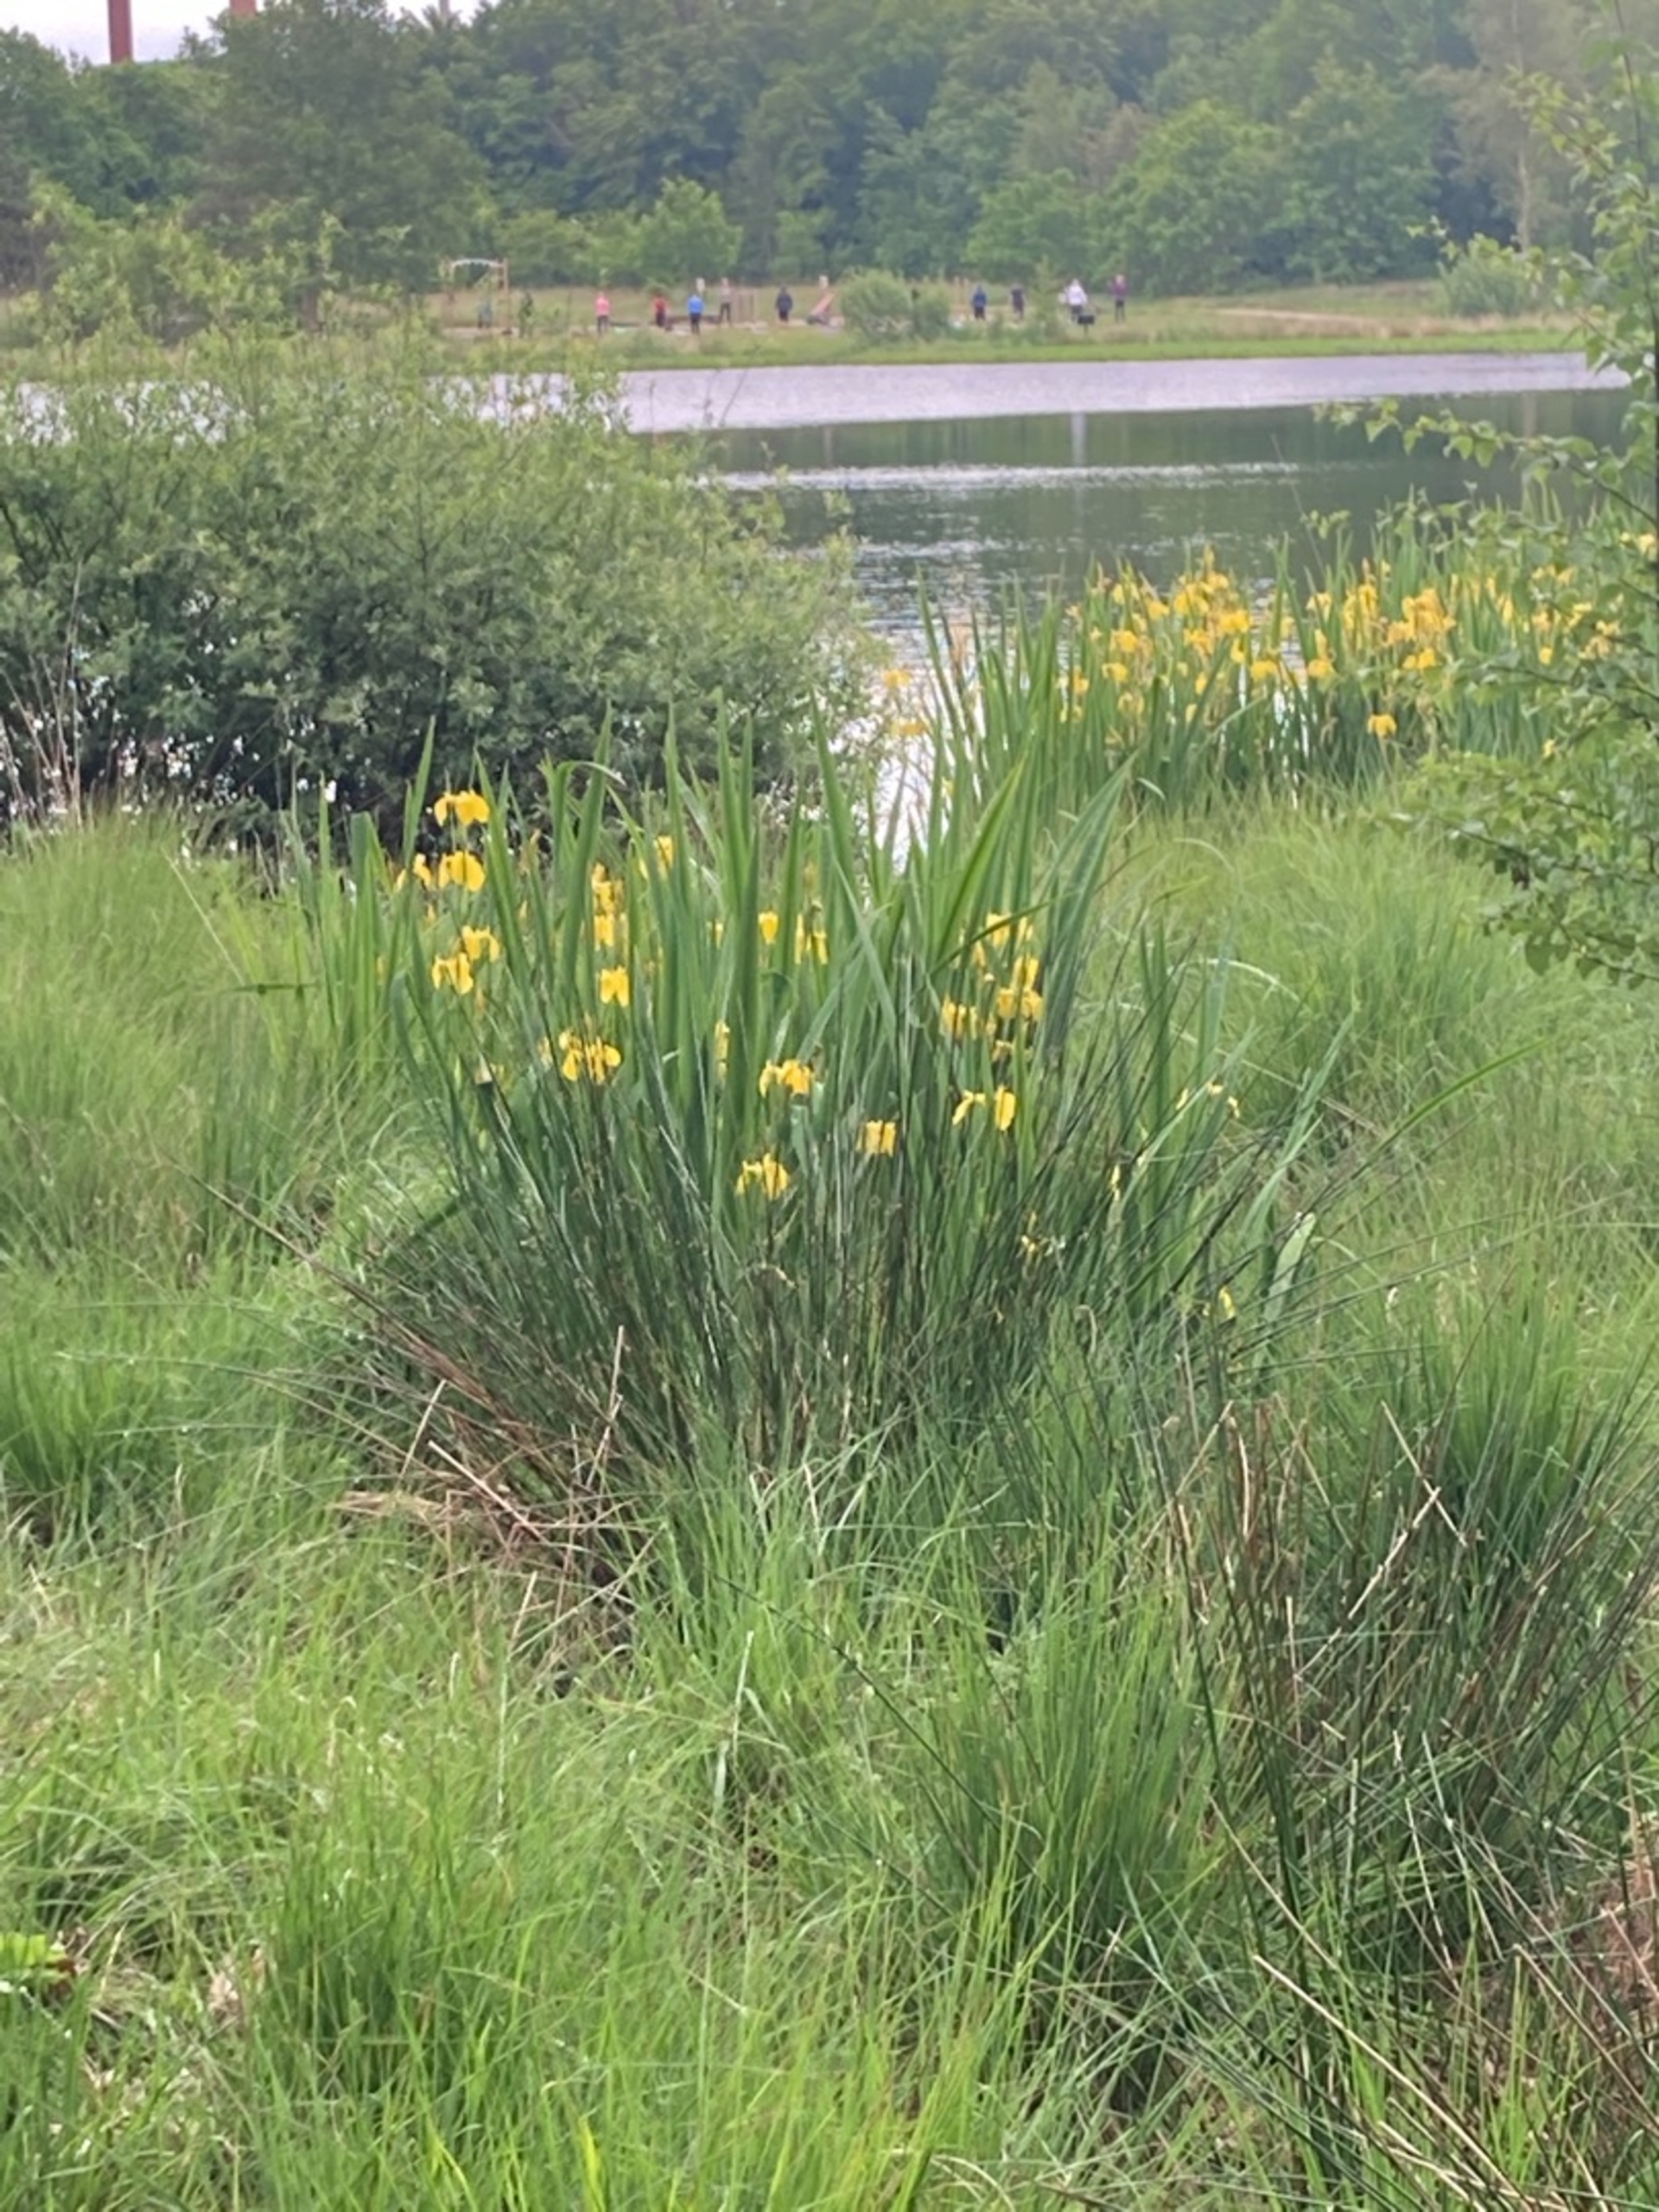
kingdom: Plantae
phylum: Tracheophyta
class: Liliopsida
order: Asparagales
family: Iridaceae
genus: Iris
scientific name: Iris pseudacorus
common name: Gul iris
